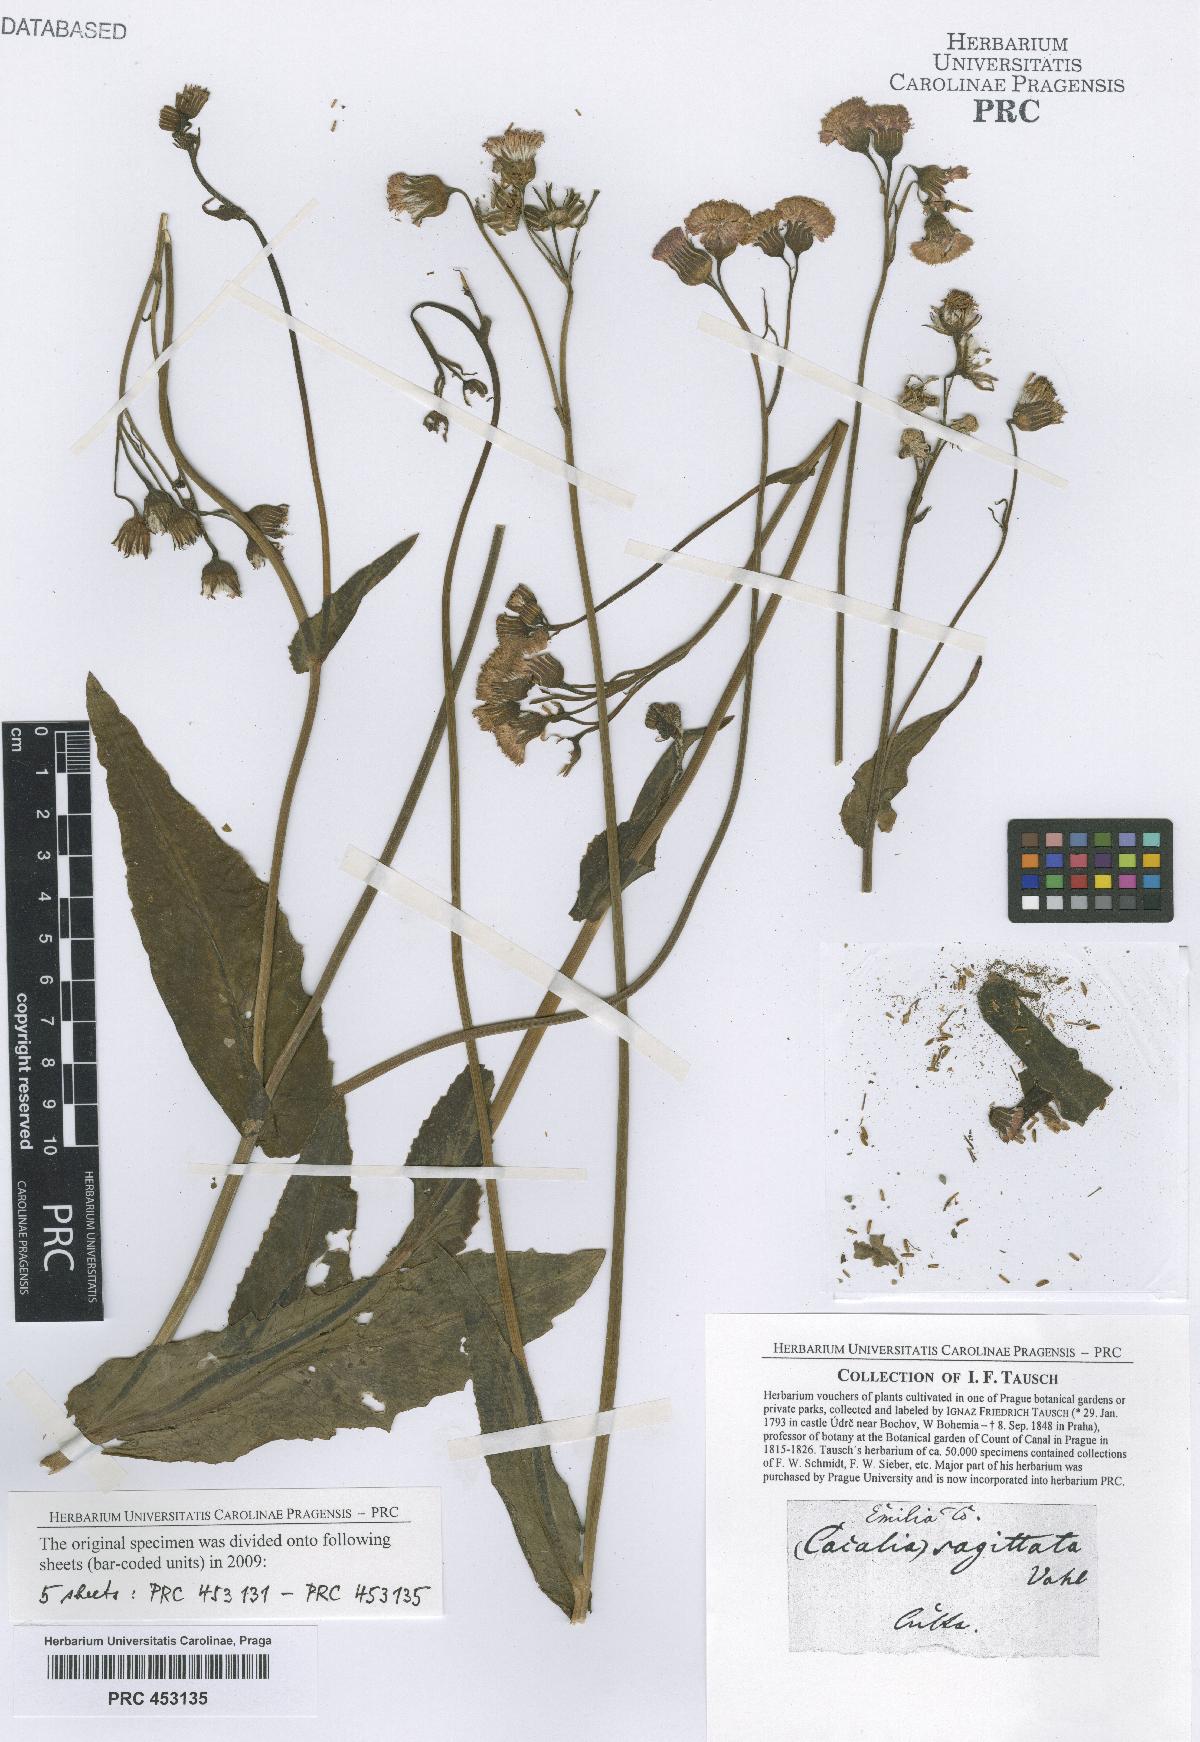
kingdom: Plantae
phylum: Tracheophyta
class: Magnoliopsida
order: Asterales
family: Asteraceae
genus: Adenostyles
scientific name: Adenostyles Cacalia scandens
